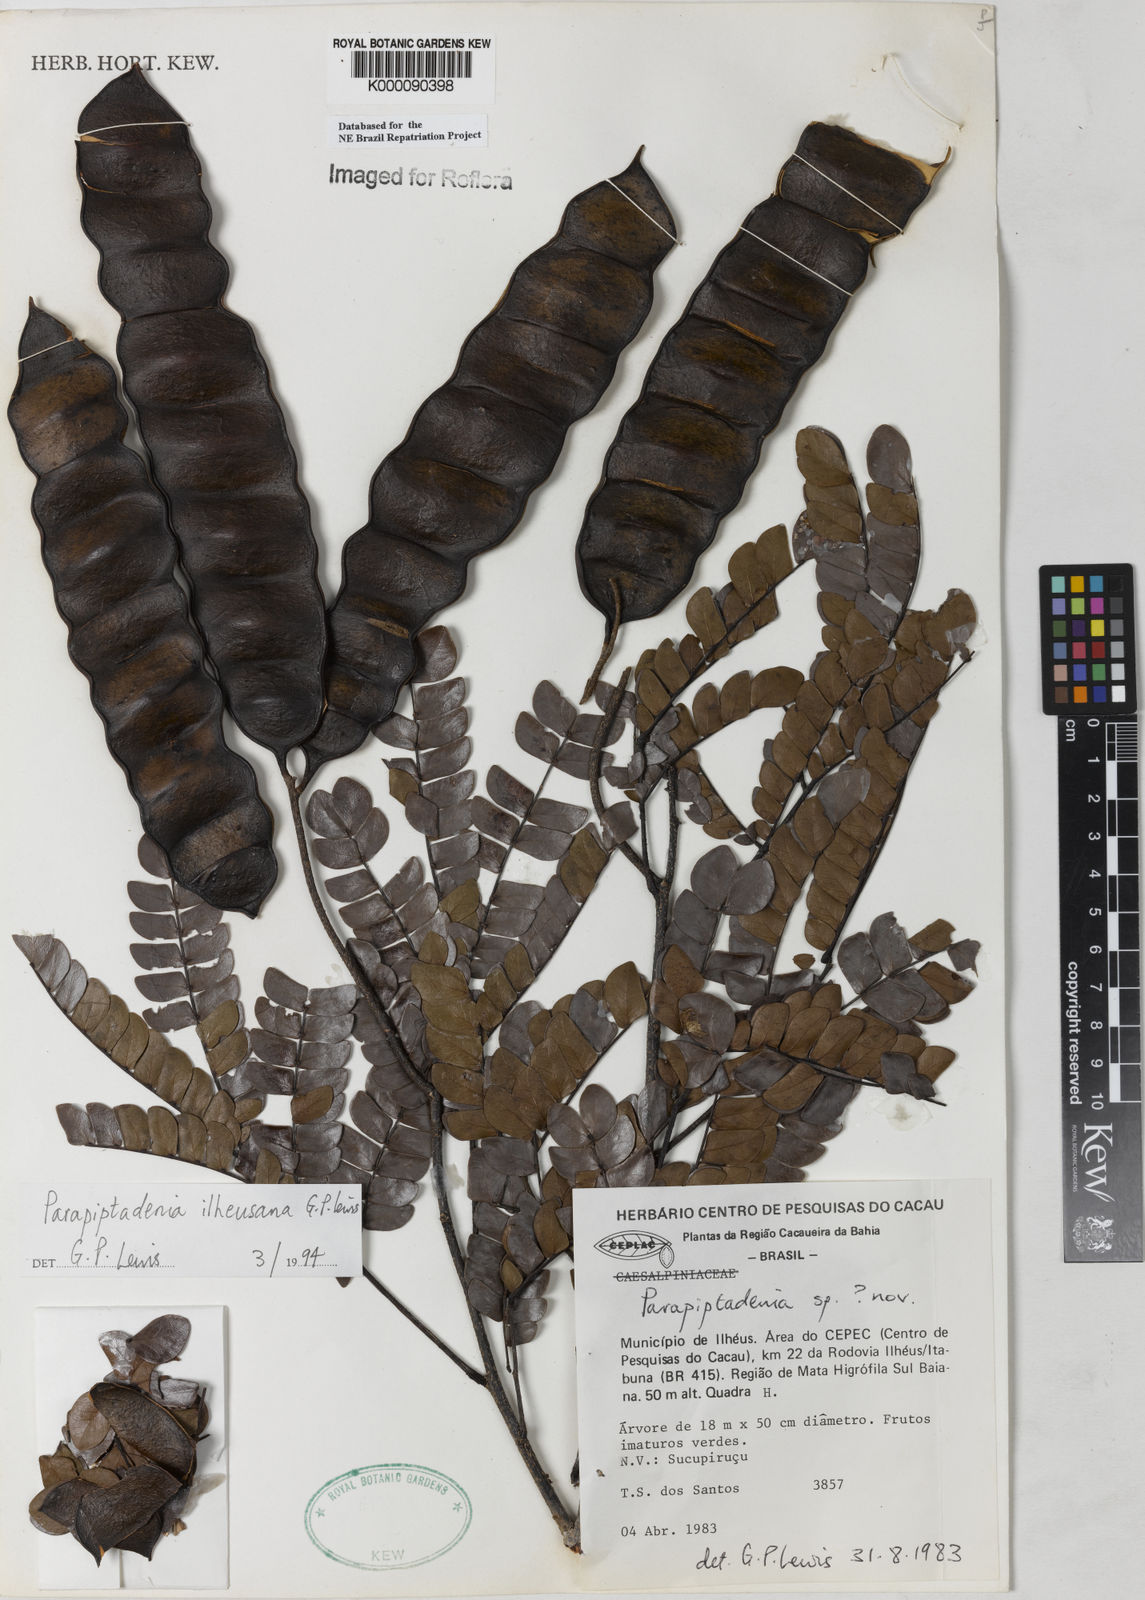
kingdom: Plantae
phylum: Tracheophyta
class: Magnoliopsida
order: Fabales
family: Fabaceae
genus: Parapiptadenia
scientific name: Parapiptadenia ilheusana
